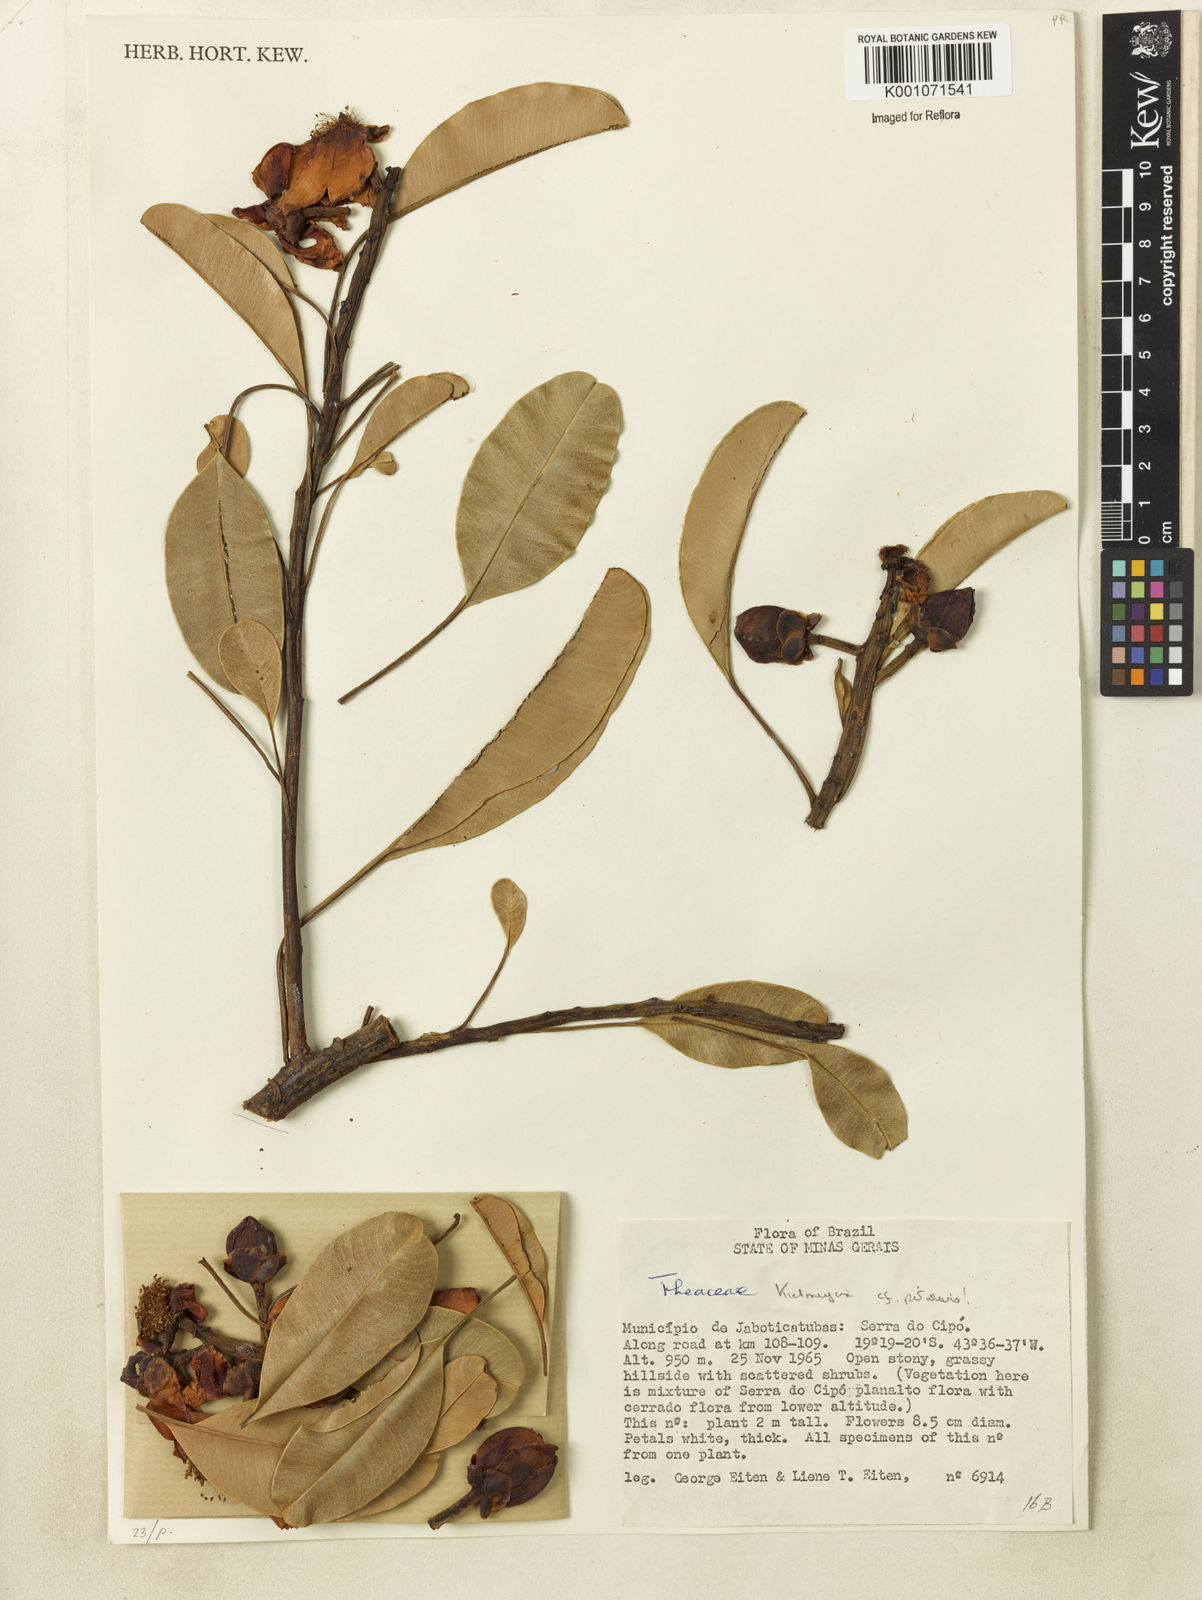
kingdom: Plantae
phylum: Tracheophyta
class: Magnoliopsida
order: Malpighiales
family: Calophyllaceae
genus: Kielmeyera
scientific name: Kielmeyera petiolaris
